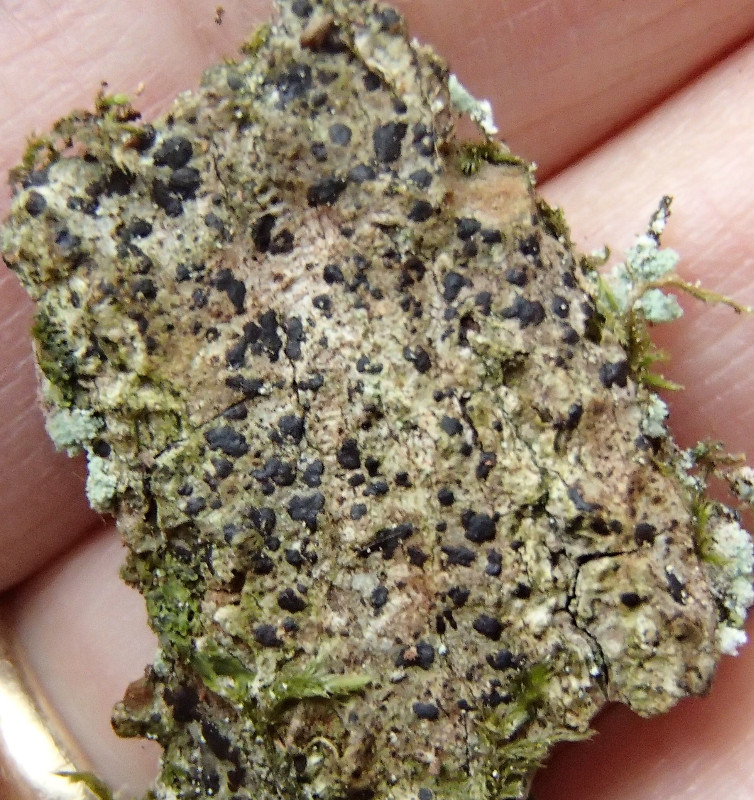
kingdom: Fungi
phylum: Ascomycota
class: Arthoniomycetes
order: Arthoniales
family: Arthoniaceae
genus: Diarthonis
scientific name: Diarthonis spadicea
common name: skygge-pletlav
